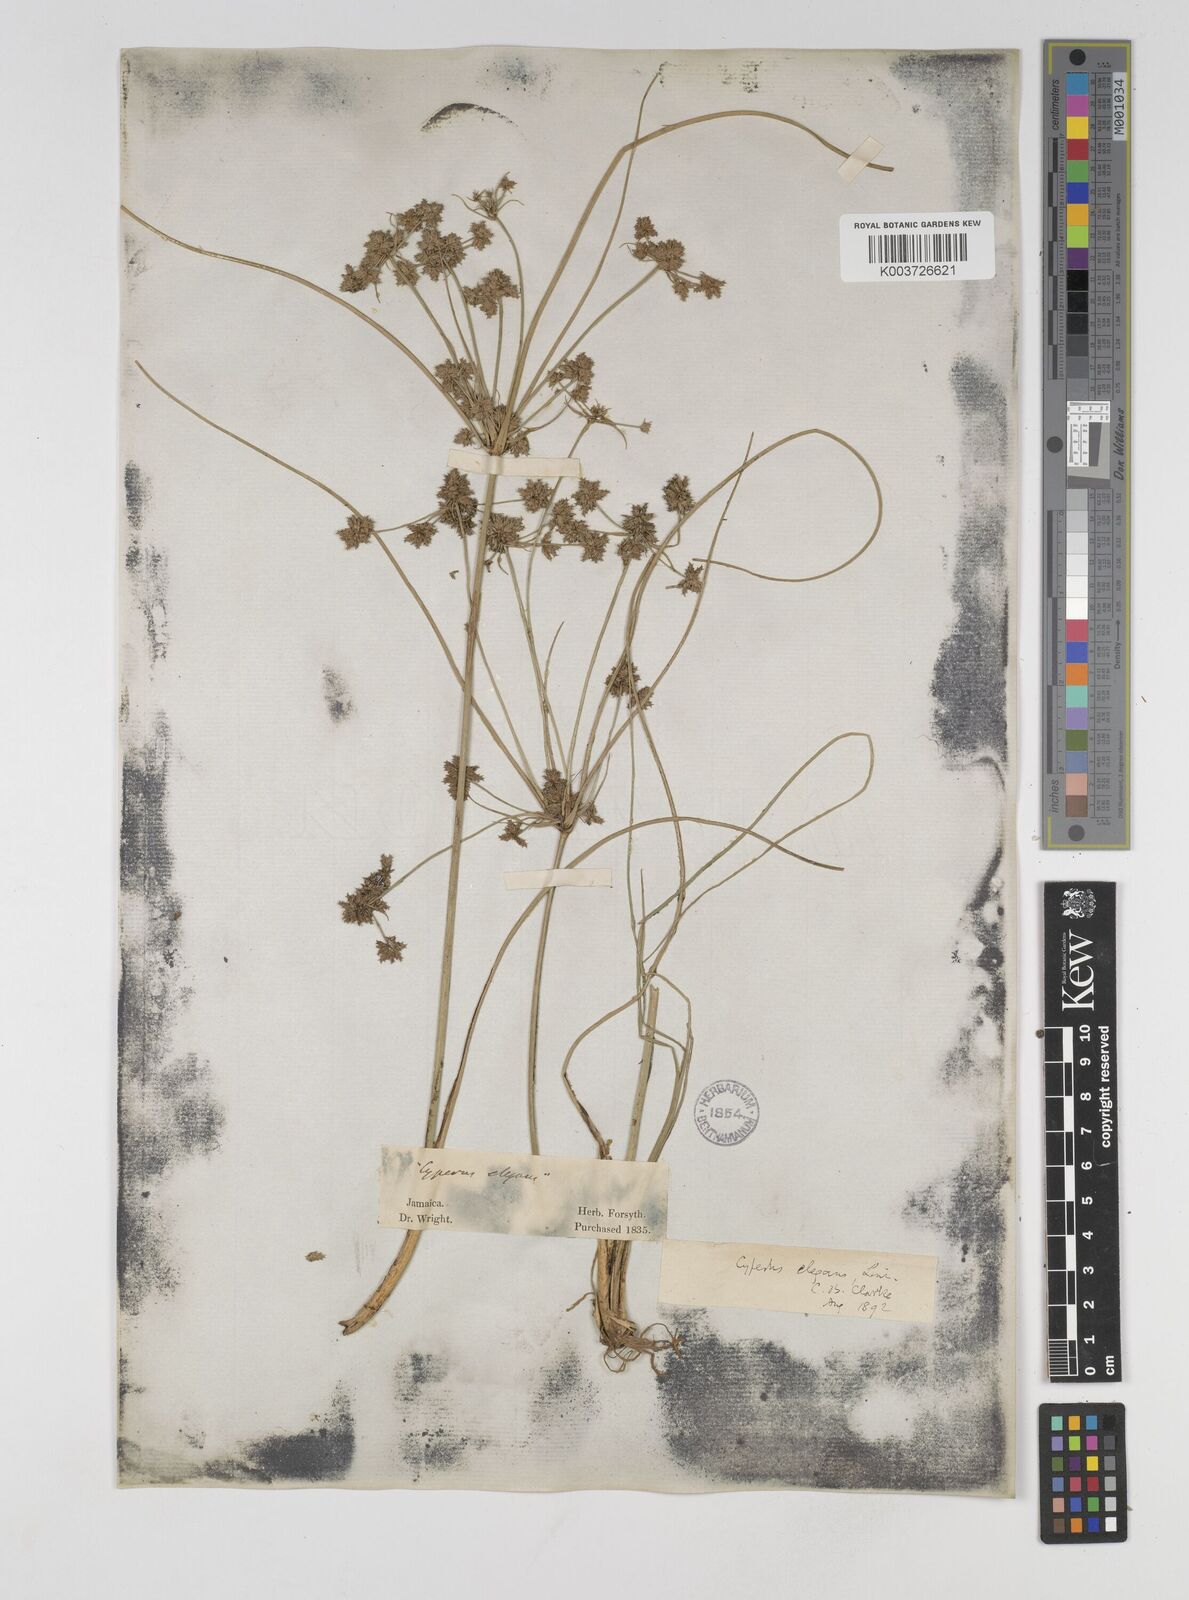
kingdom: Plantae
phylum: Tracheophyta
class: Liliopsida
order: Poales
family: Cyperaceae
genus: Cyperus
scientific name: Cyperus elegans
